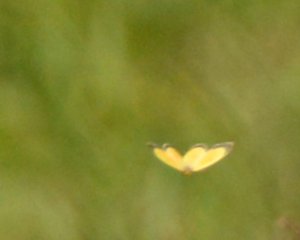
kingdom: Animalia
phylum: Arthropoda
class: Insecta
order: Lepidoptera
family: Pieridae
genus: Colias
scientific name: Colias eurytheme
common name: Orange Sulphur
